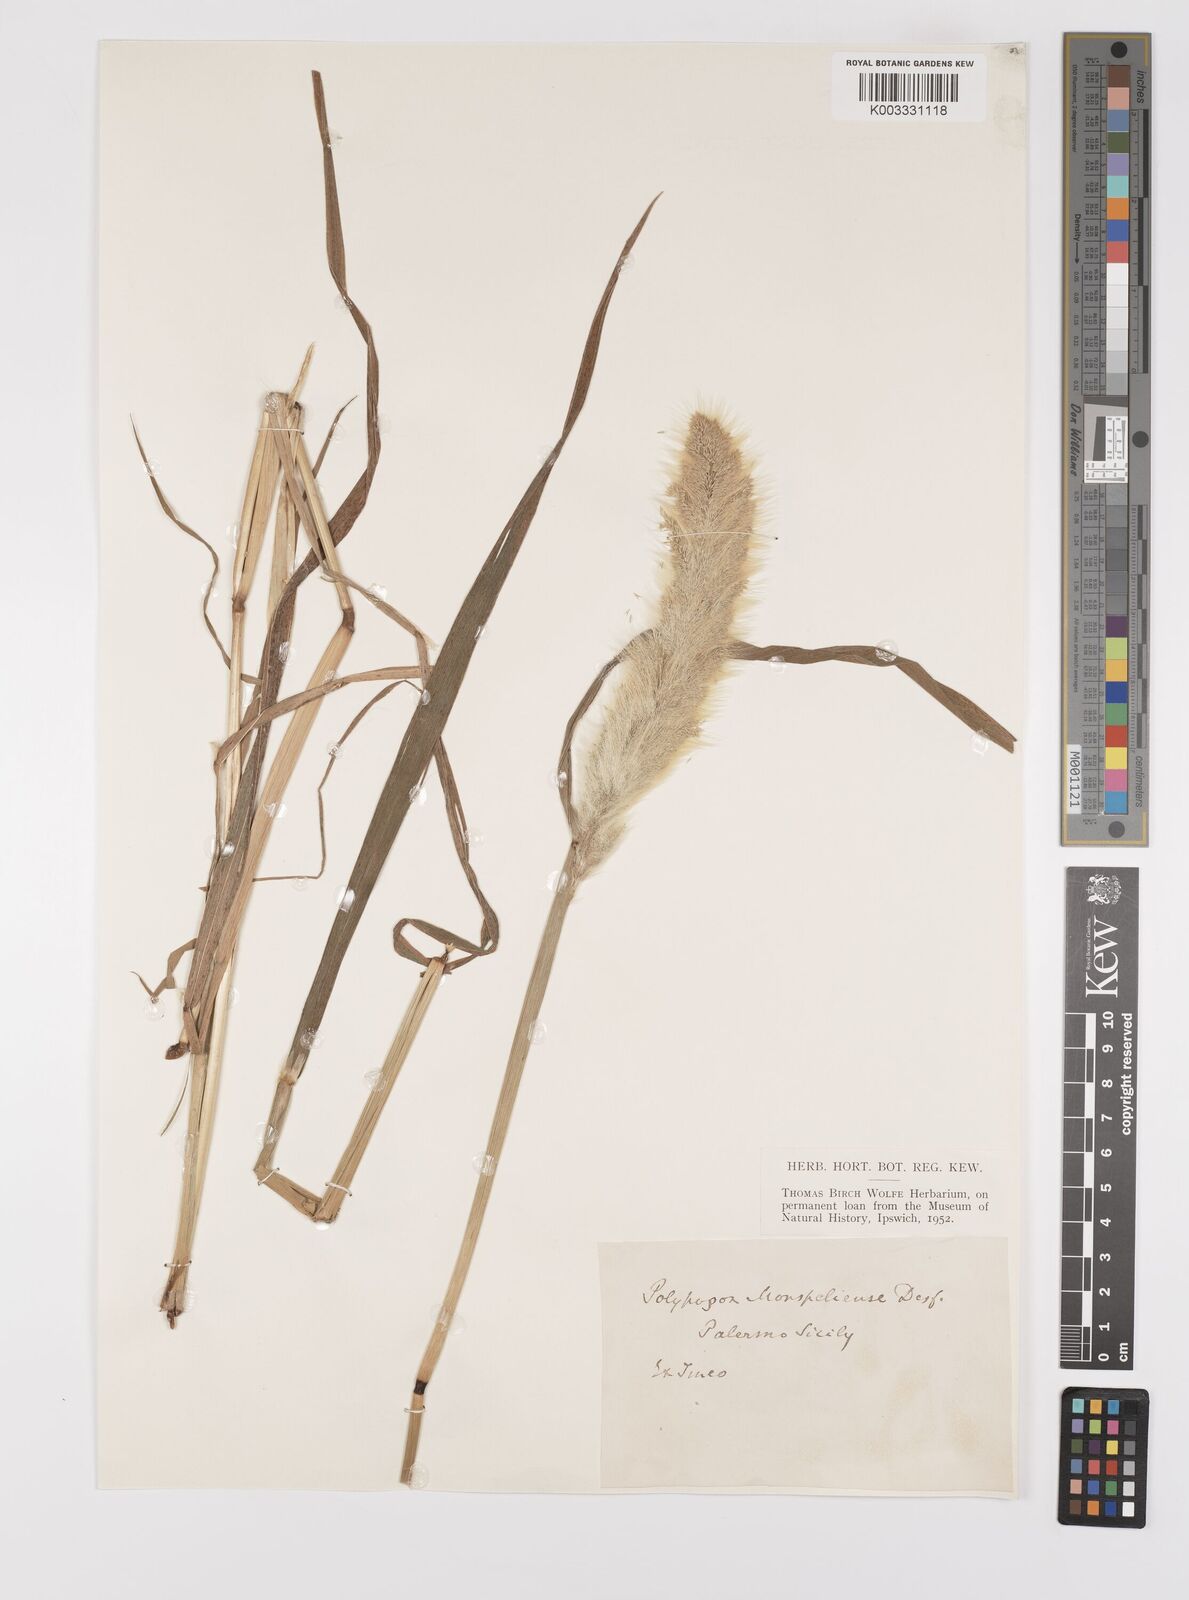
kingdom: Plantae
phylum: Tracheophyta
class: Liliopsida
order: Poales
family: Poaceae
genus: Polypogon
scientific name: Polypogon monspeliensis
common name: Annual rabbitsfoot grass
